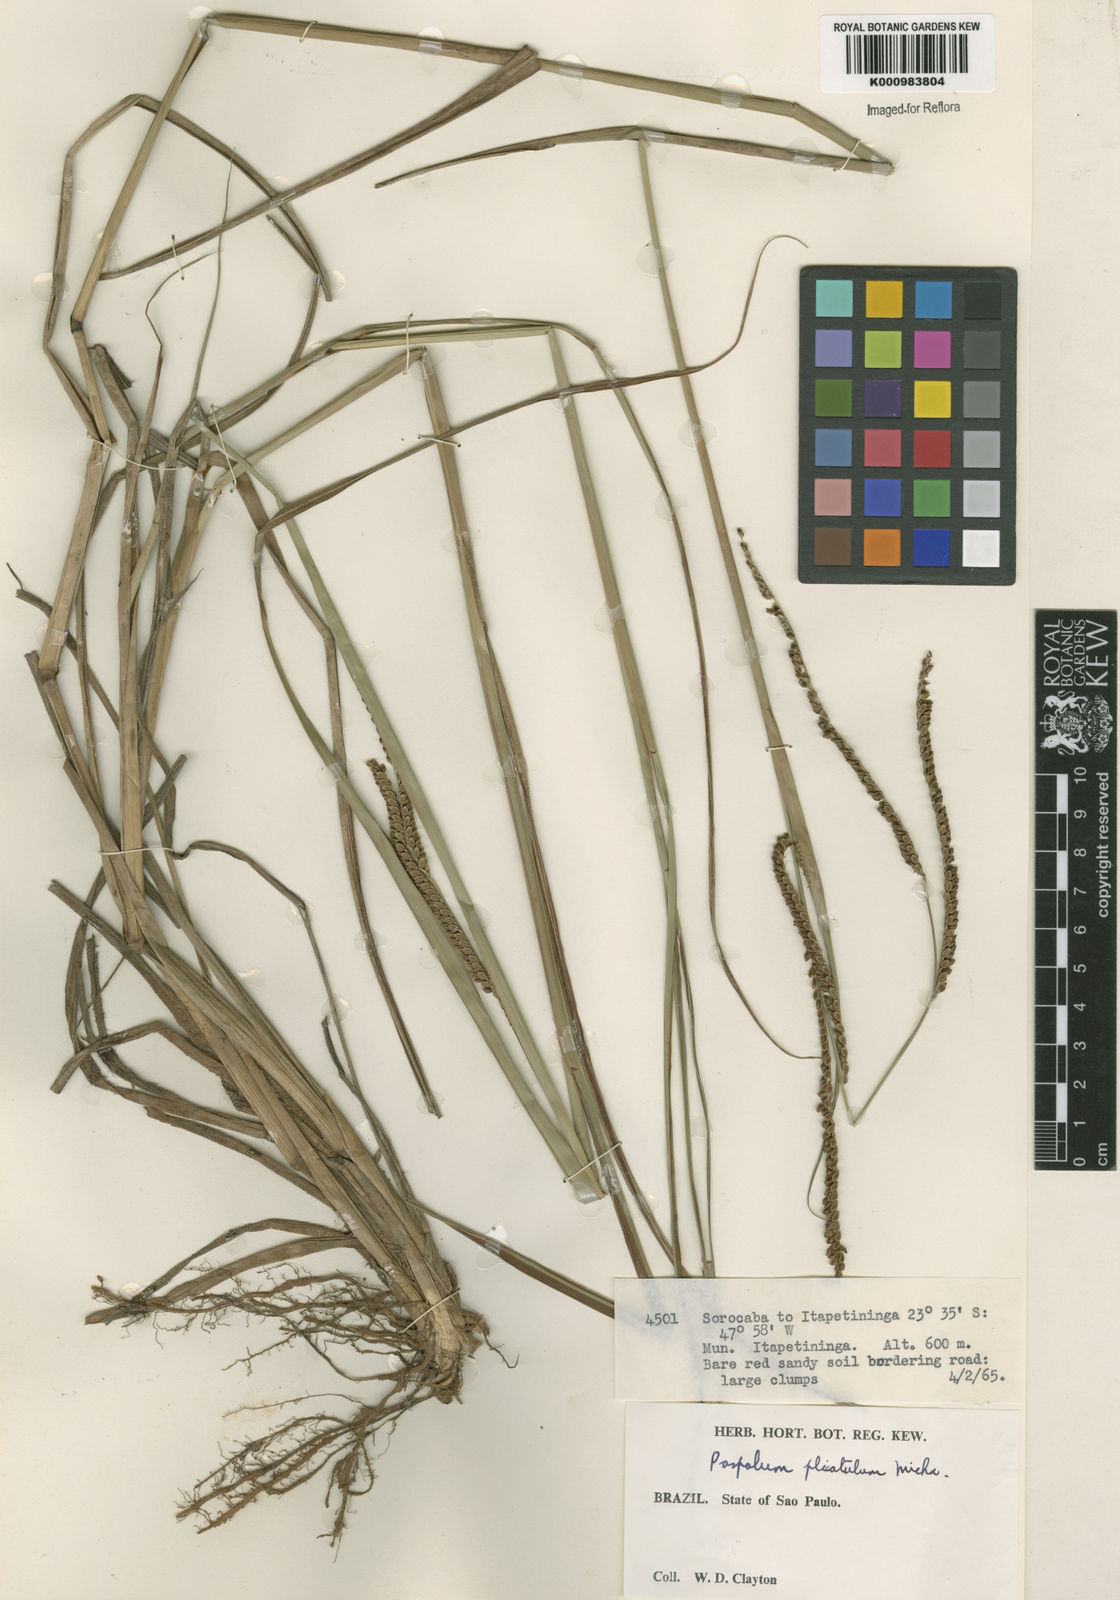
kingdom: Plantae
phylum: Tracheophyta
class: Liliopsida
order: Poales
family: Poaceae
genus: Paspalum
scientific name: Paspalum plicatulum
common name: Top paspalum
